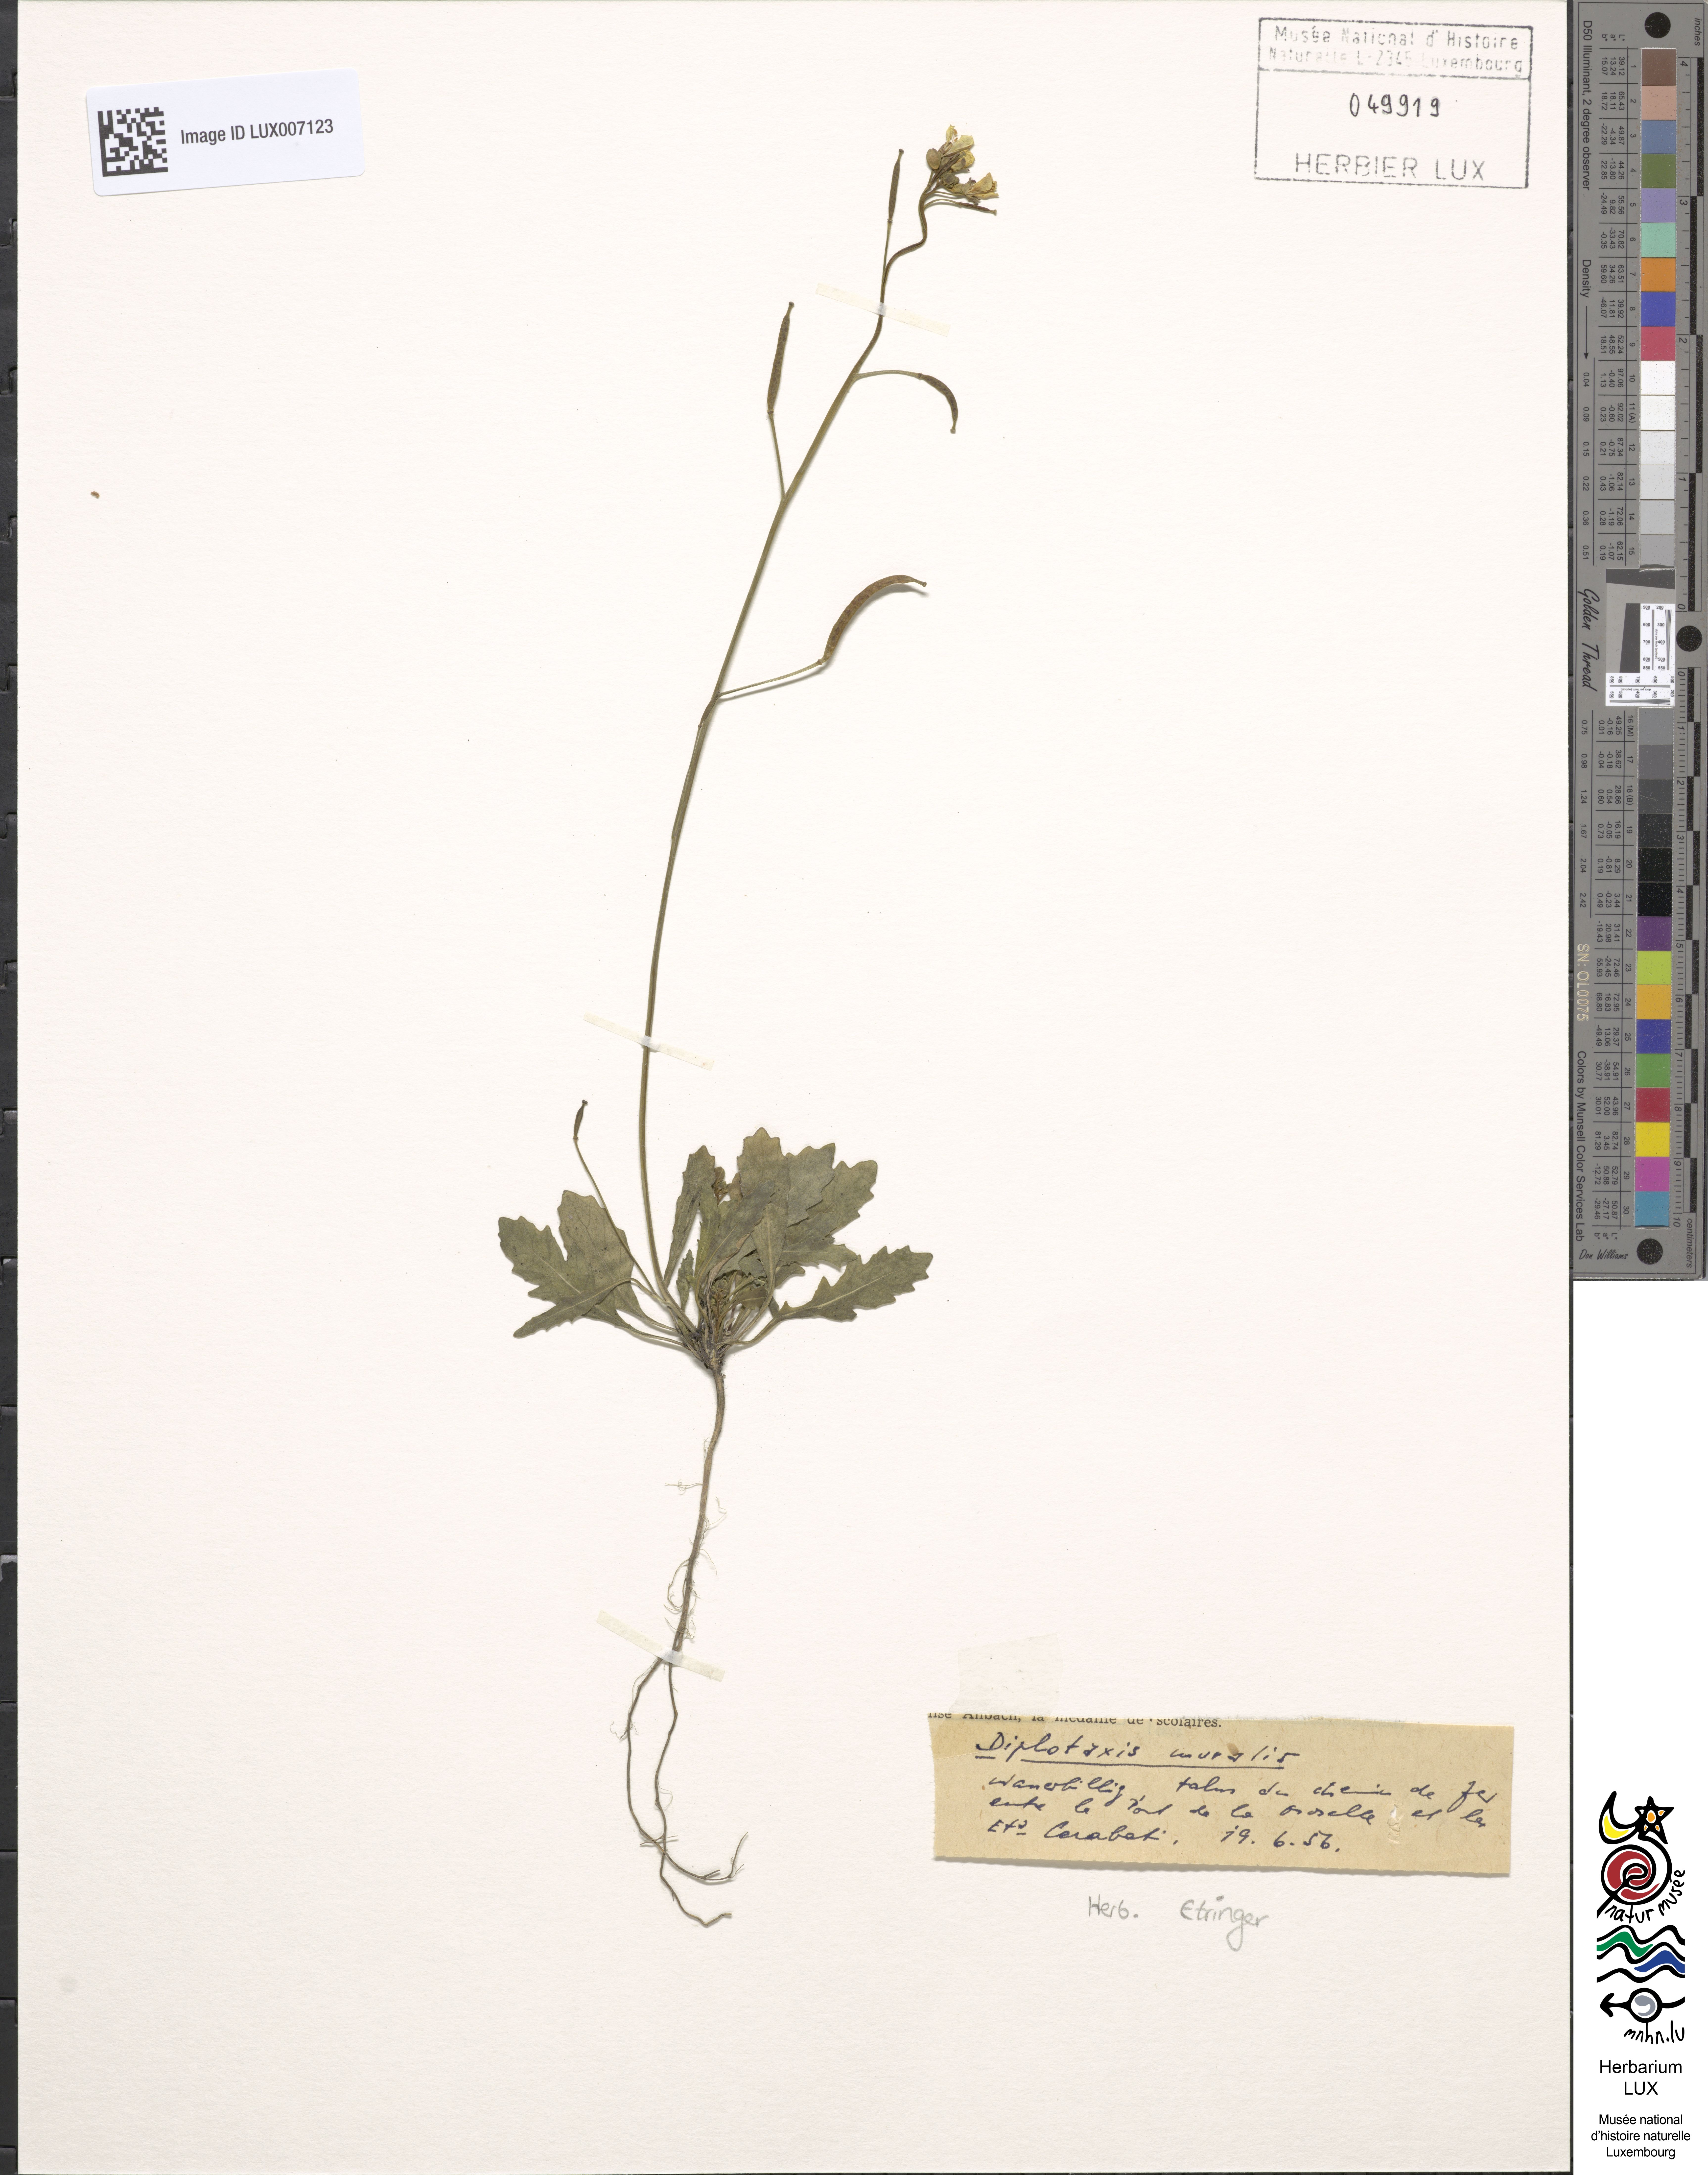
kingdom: Plantae
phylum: Tracheophyta
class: Magnoliopsida
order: Brassicales
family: Brassicaceae
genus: Diplotaxis
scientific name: Diplotaxis muralis
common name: Annual wall-rocket
